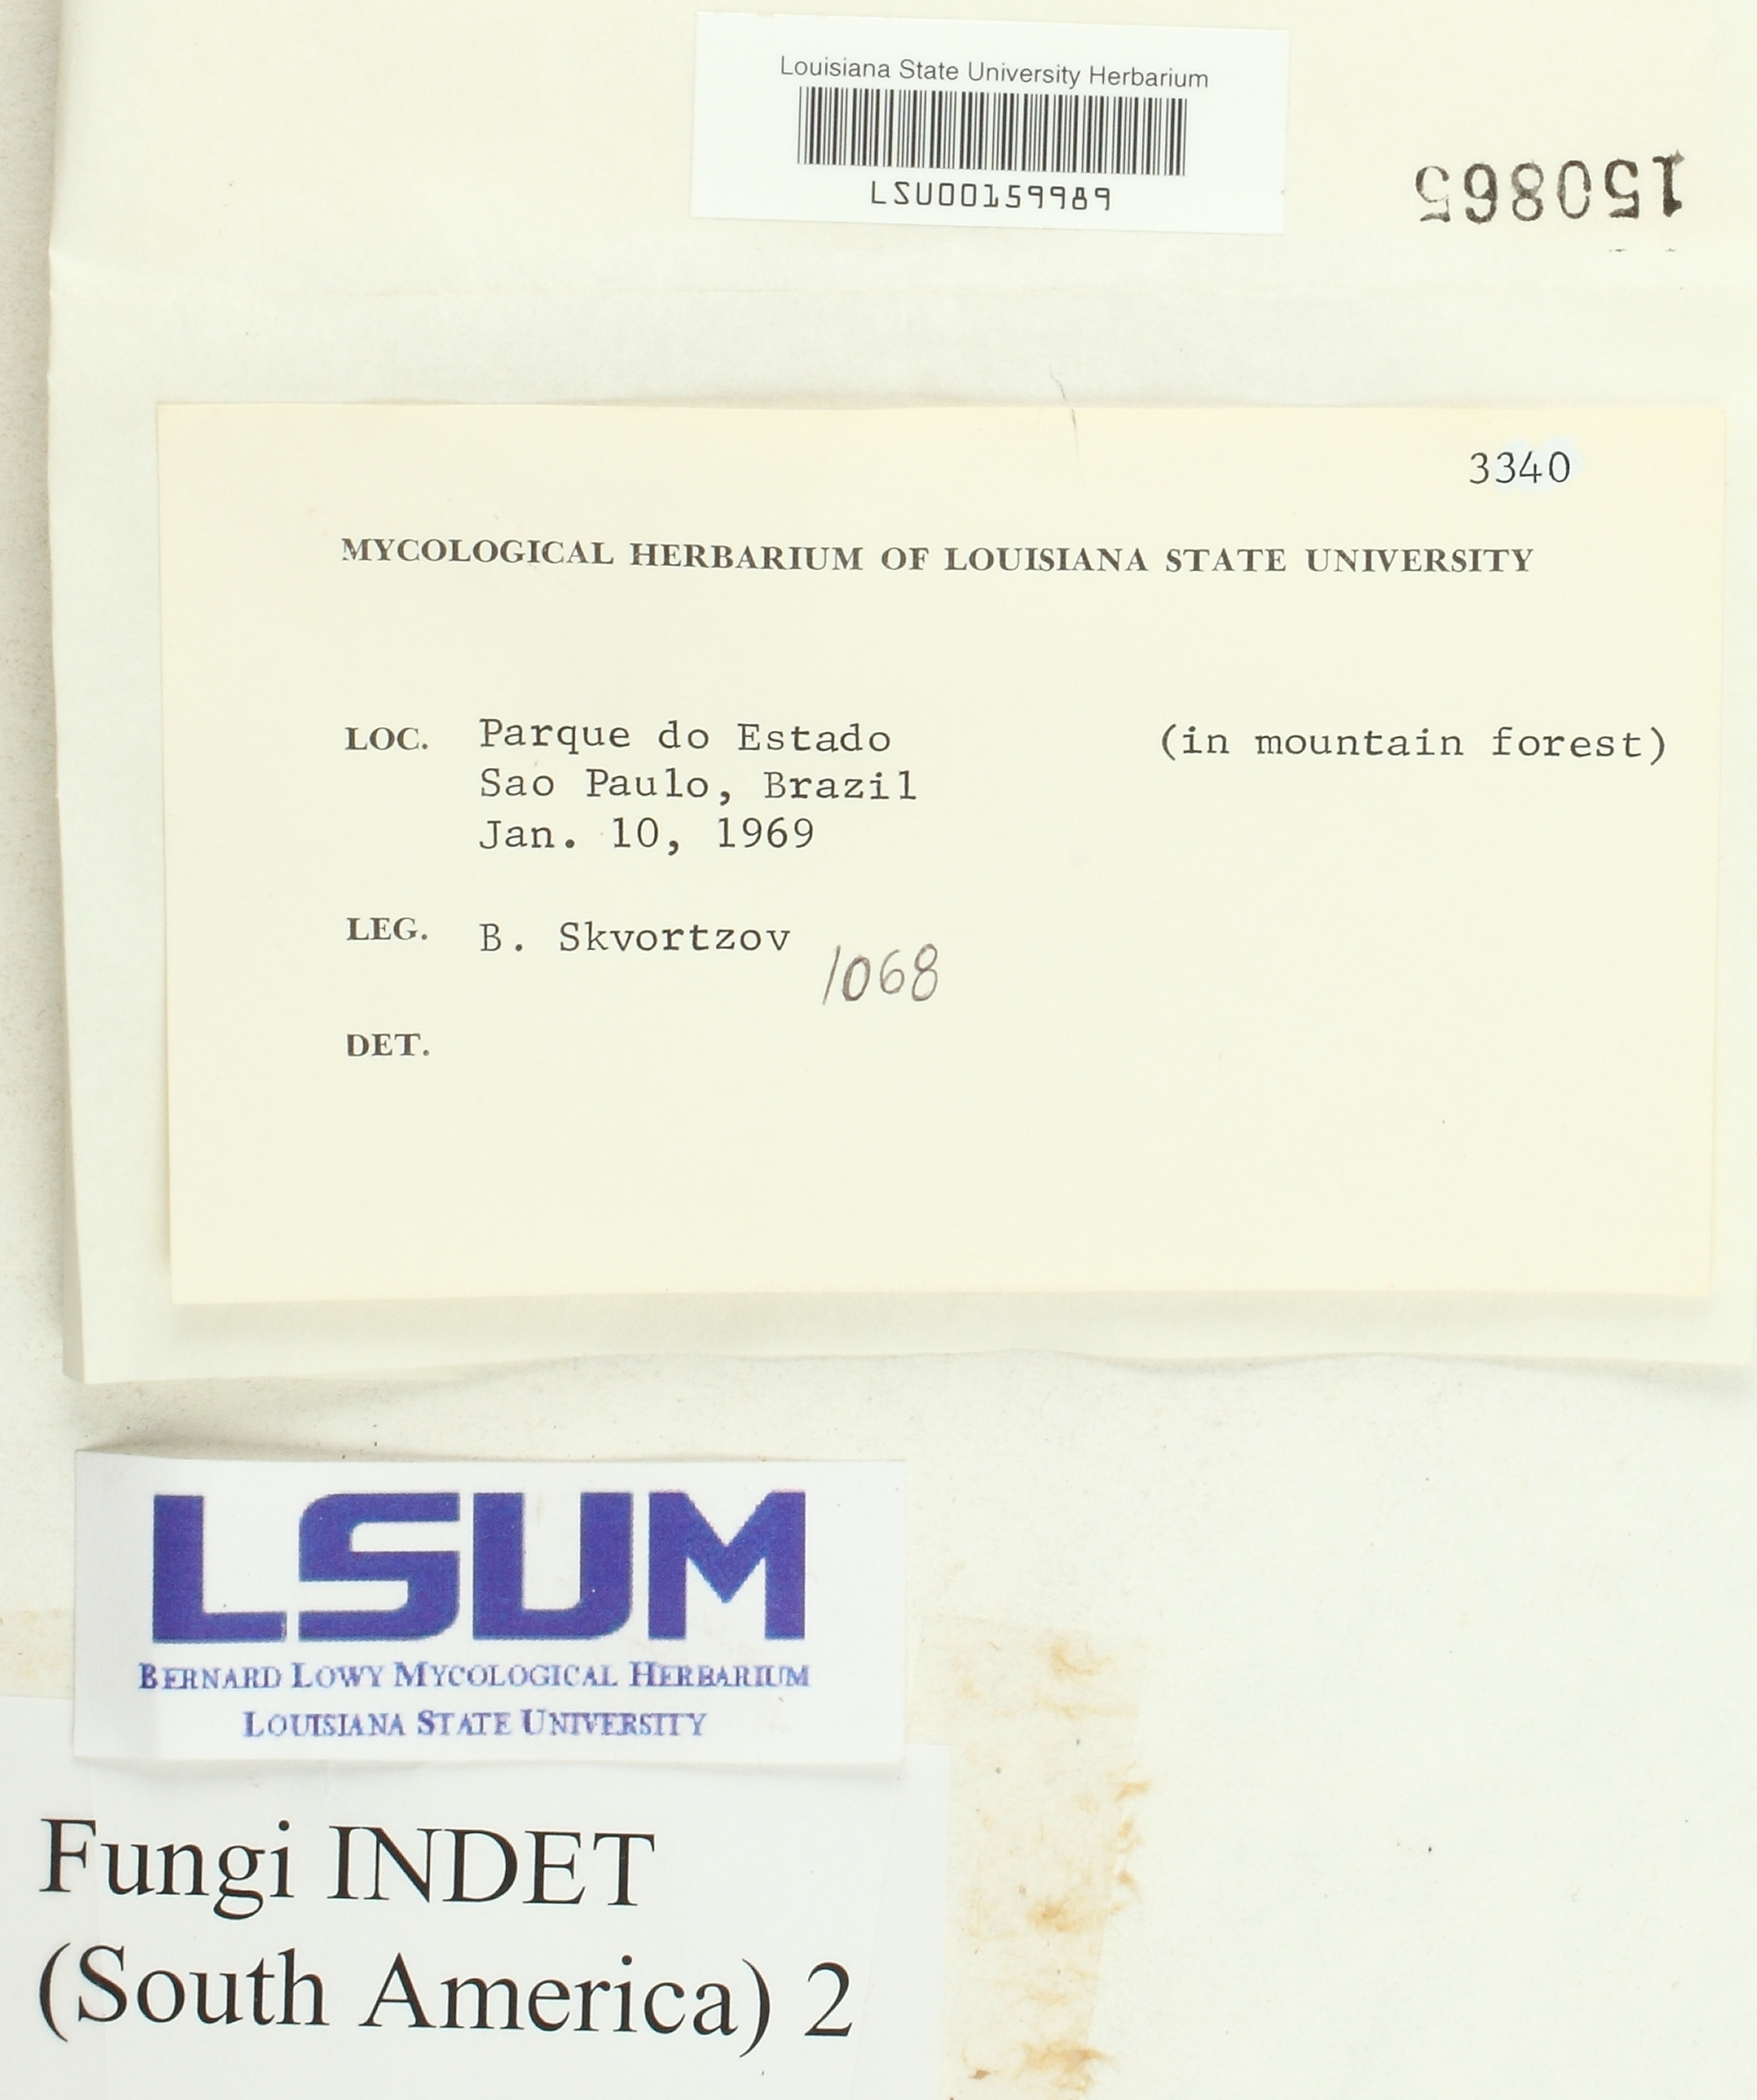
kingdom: Fungi
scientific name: Fungi
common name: Fungi
